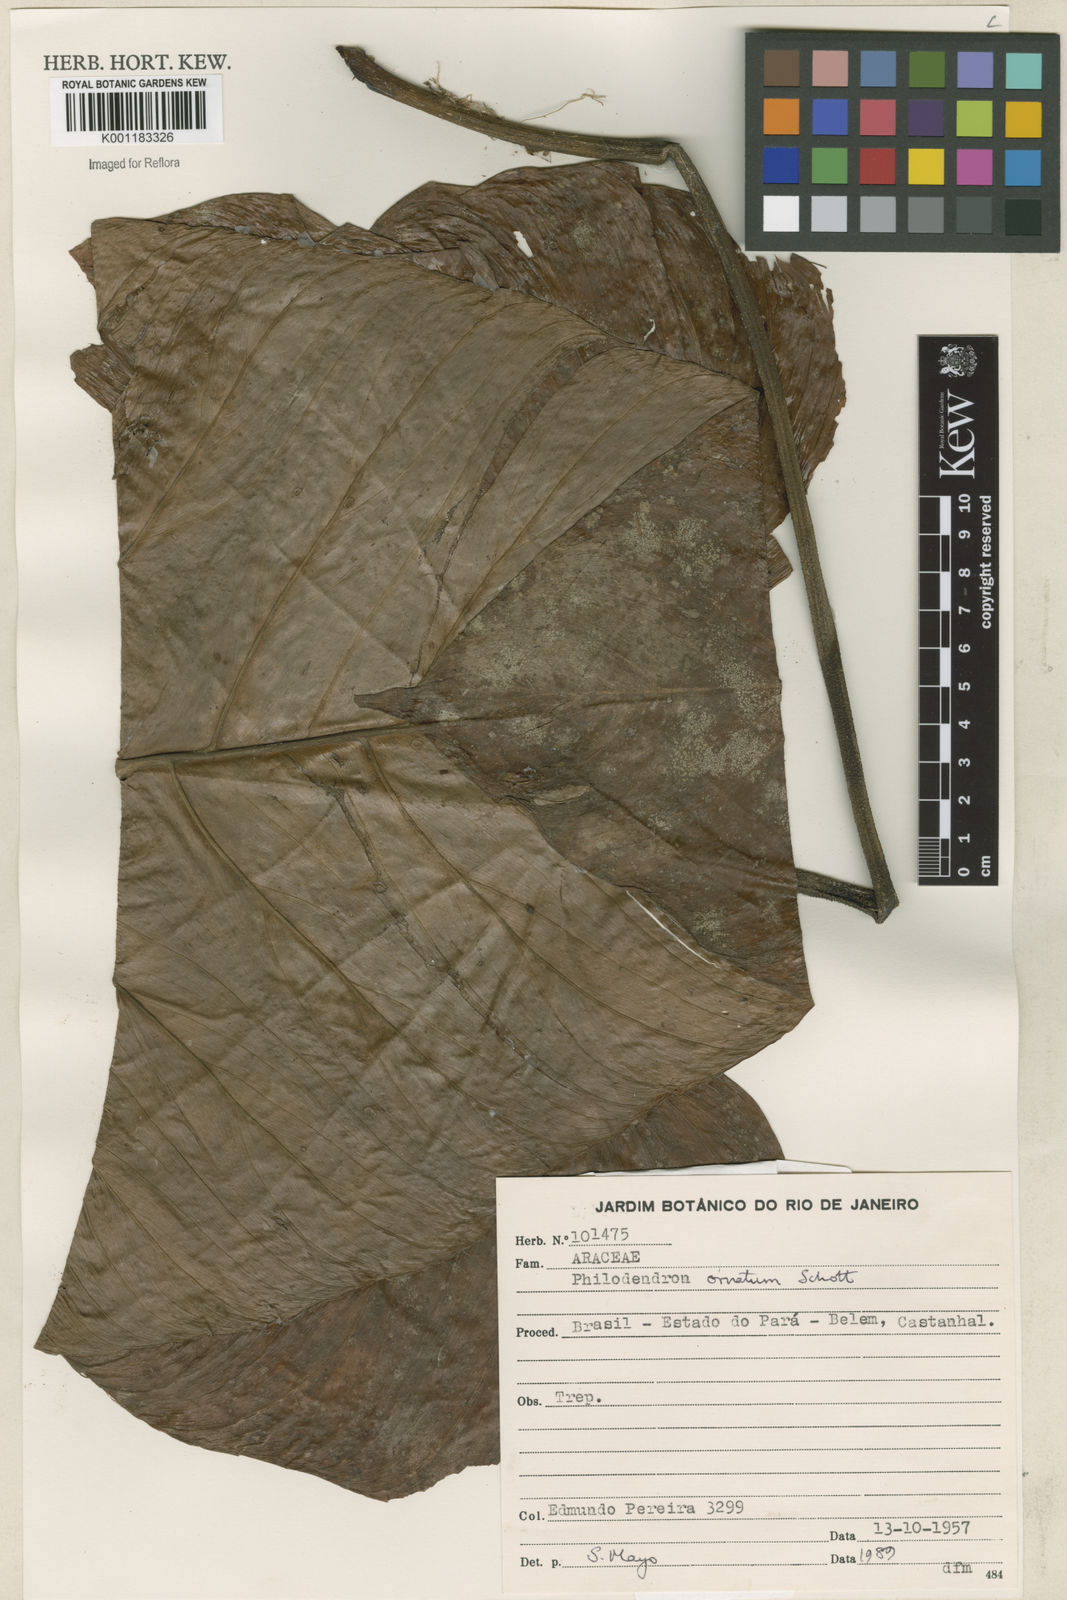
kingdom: Plantae
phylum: Tracheophyta
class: Liliopsida
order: Alismatales
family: Araceae
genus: Philodendron
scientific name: Philodendron ornatum
